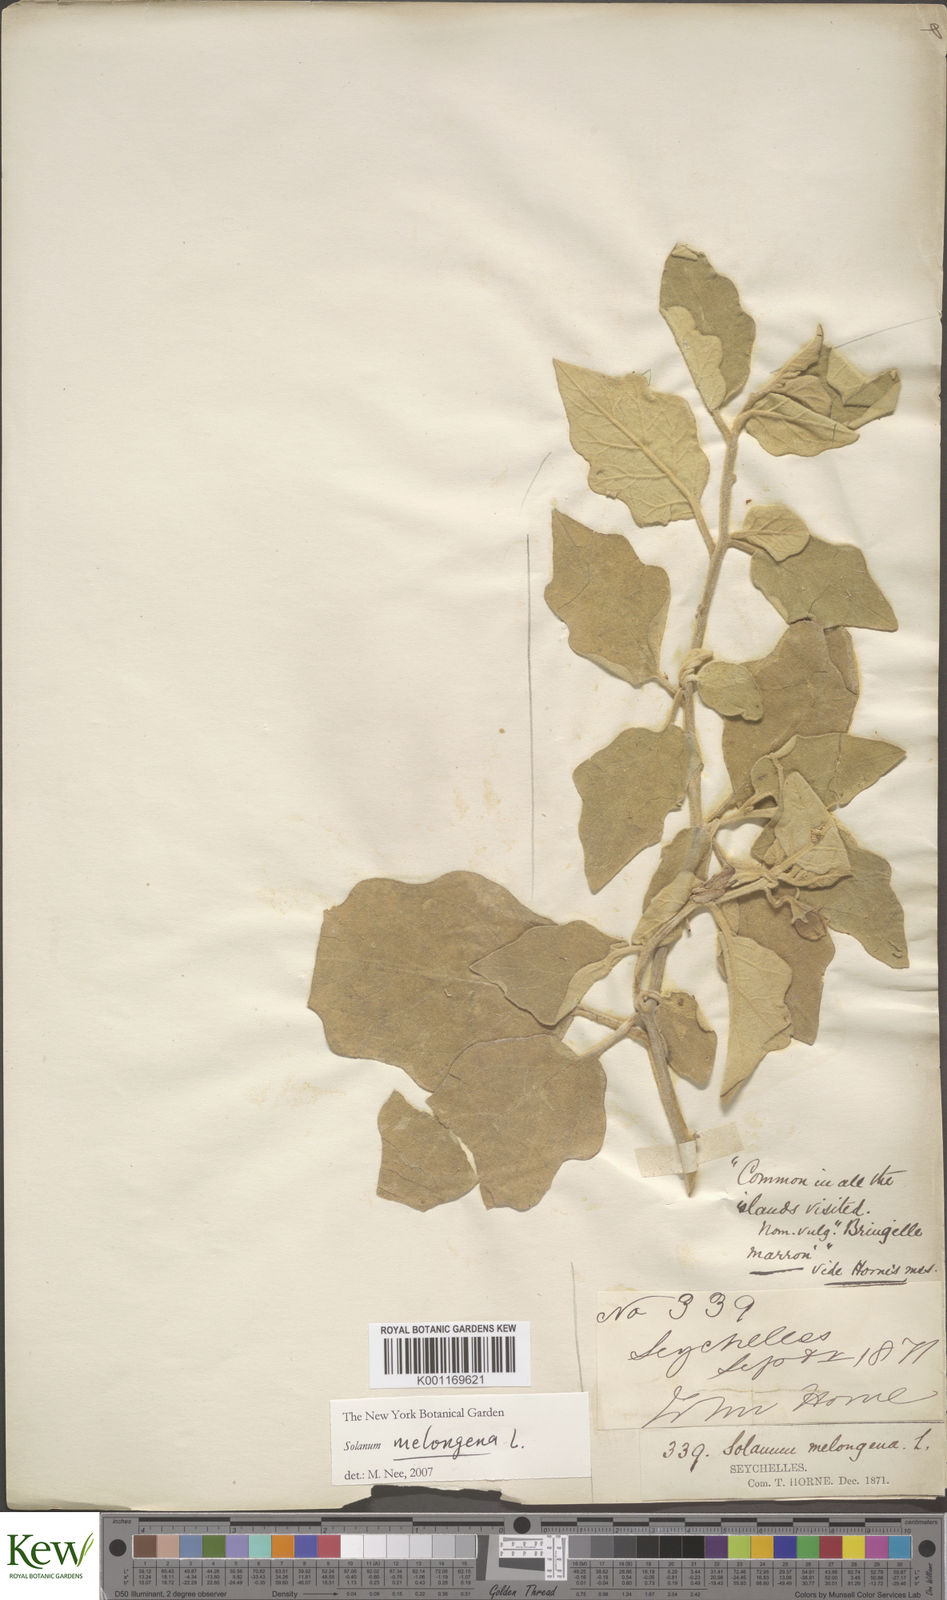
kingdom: Plantae
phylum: Tracheophyta
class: Magnoliopsida
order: Solanales
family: Solanaceae
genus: Solanum
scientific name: Solanum melongena
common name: Eggplant
